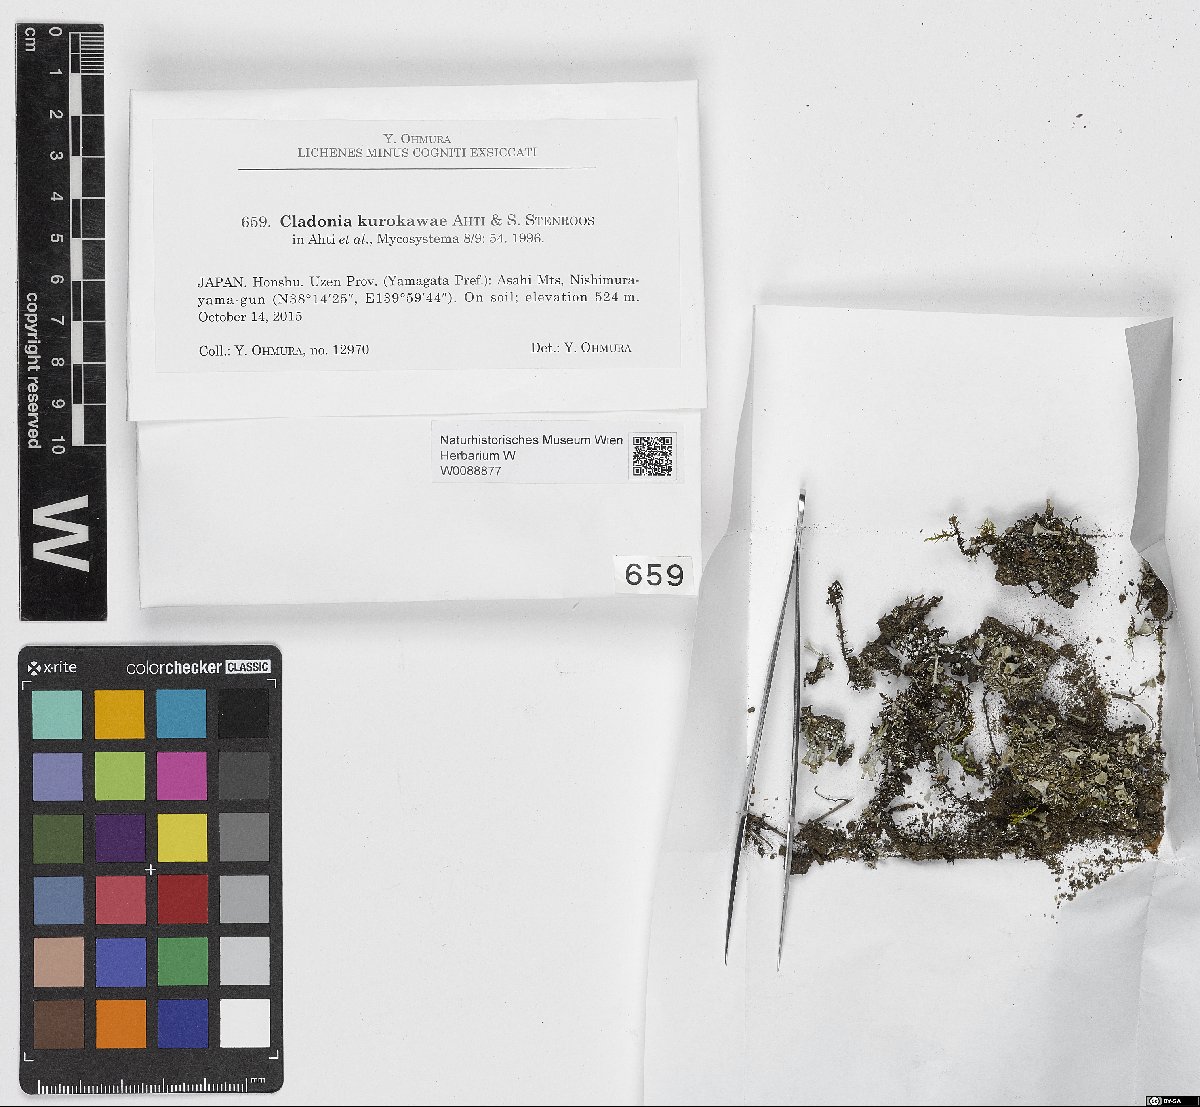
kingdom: Fungi
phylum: Ascomycota
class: Lecanoromycetes
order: Lecanorales
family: Cladoniaceae
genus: Cladonia
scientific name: Cladonia kurokawae
